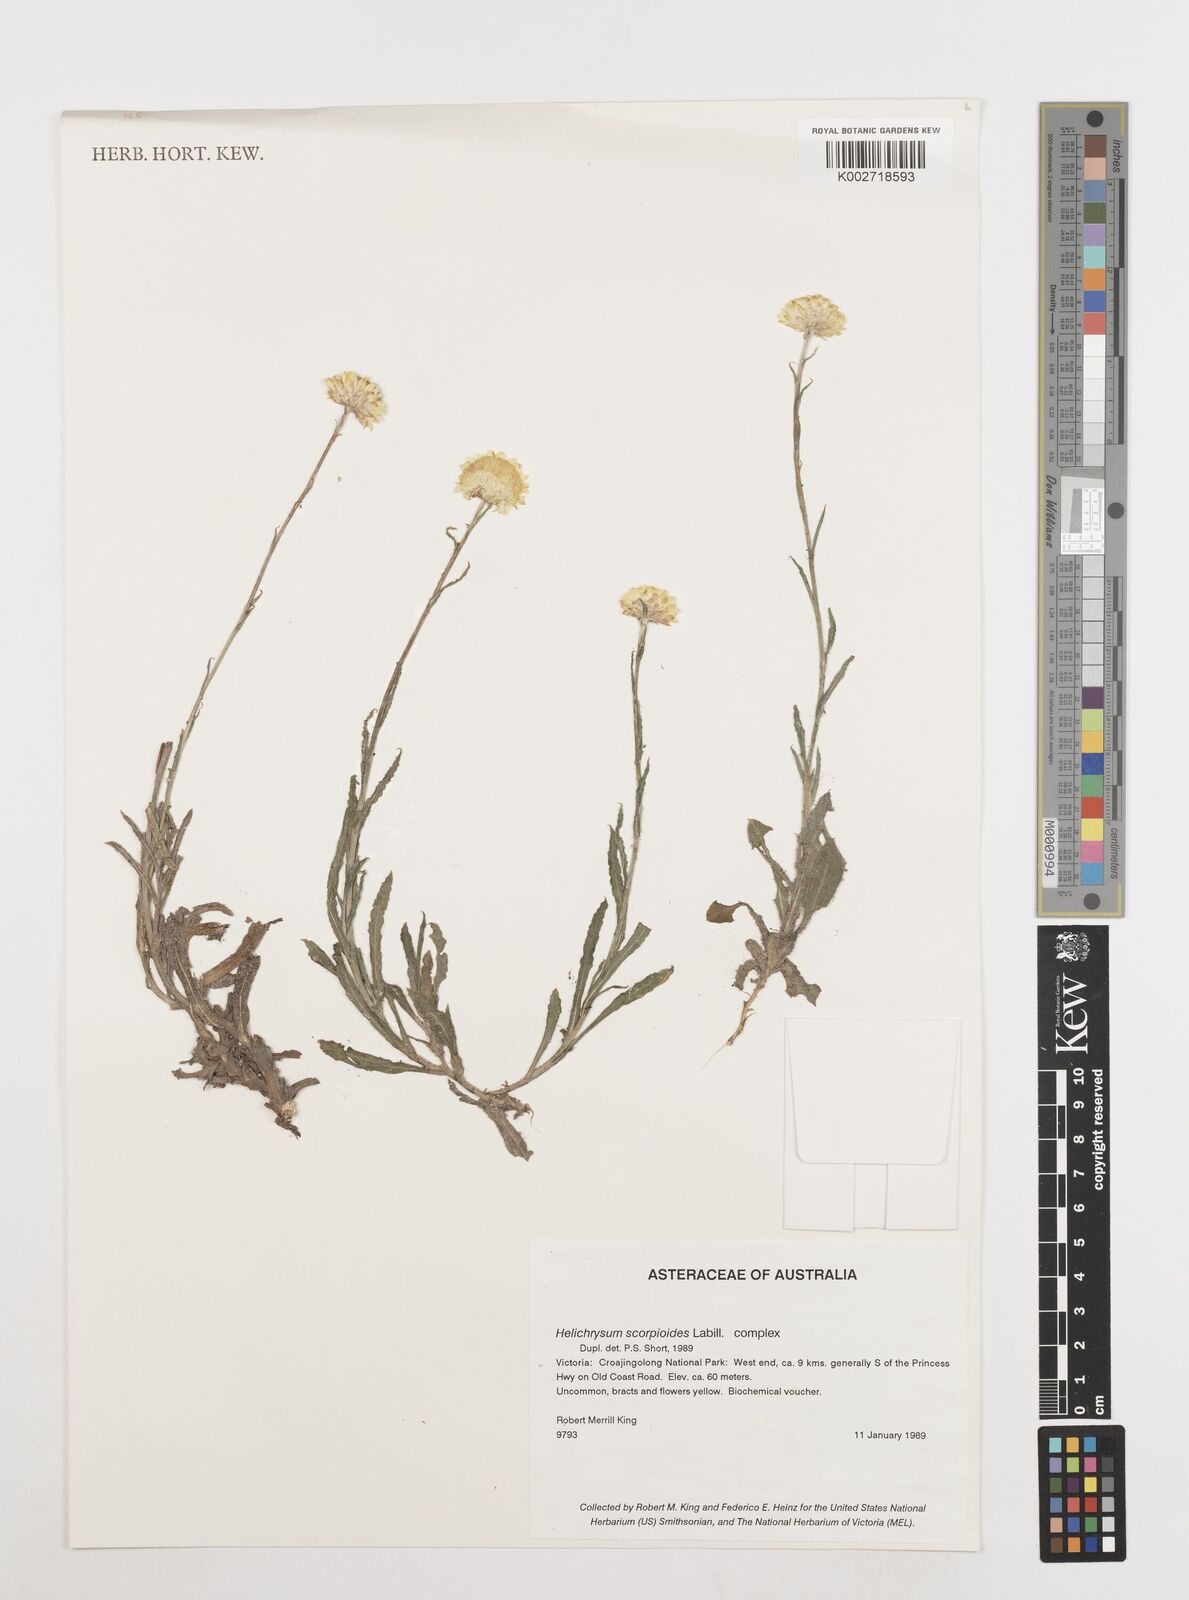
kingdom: Plantae
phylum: Tracheophyta
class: Magnoliopsida
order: Asterales
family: Asteraceae
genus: Coronidium
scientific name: Coronidium scorpioides
